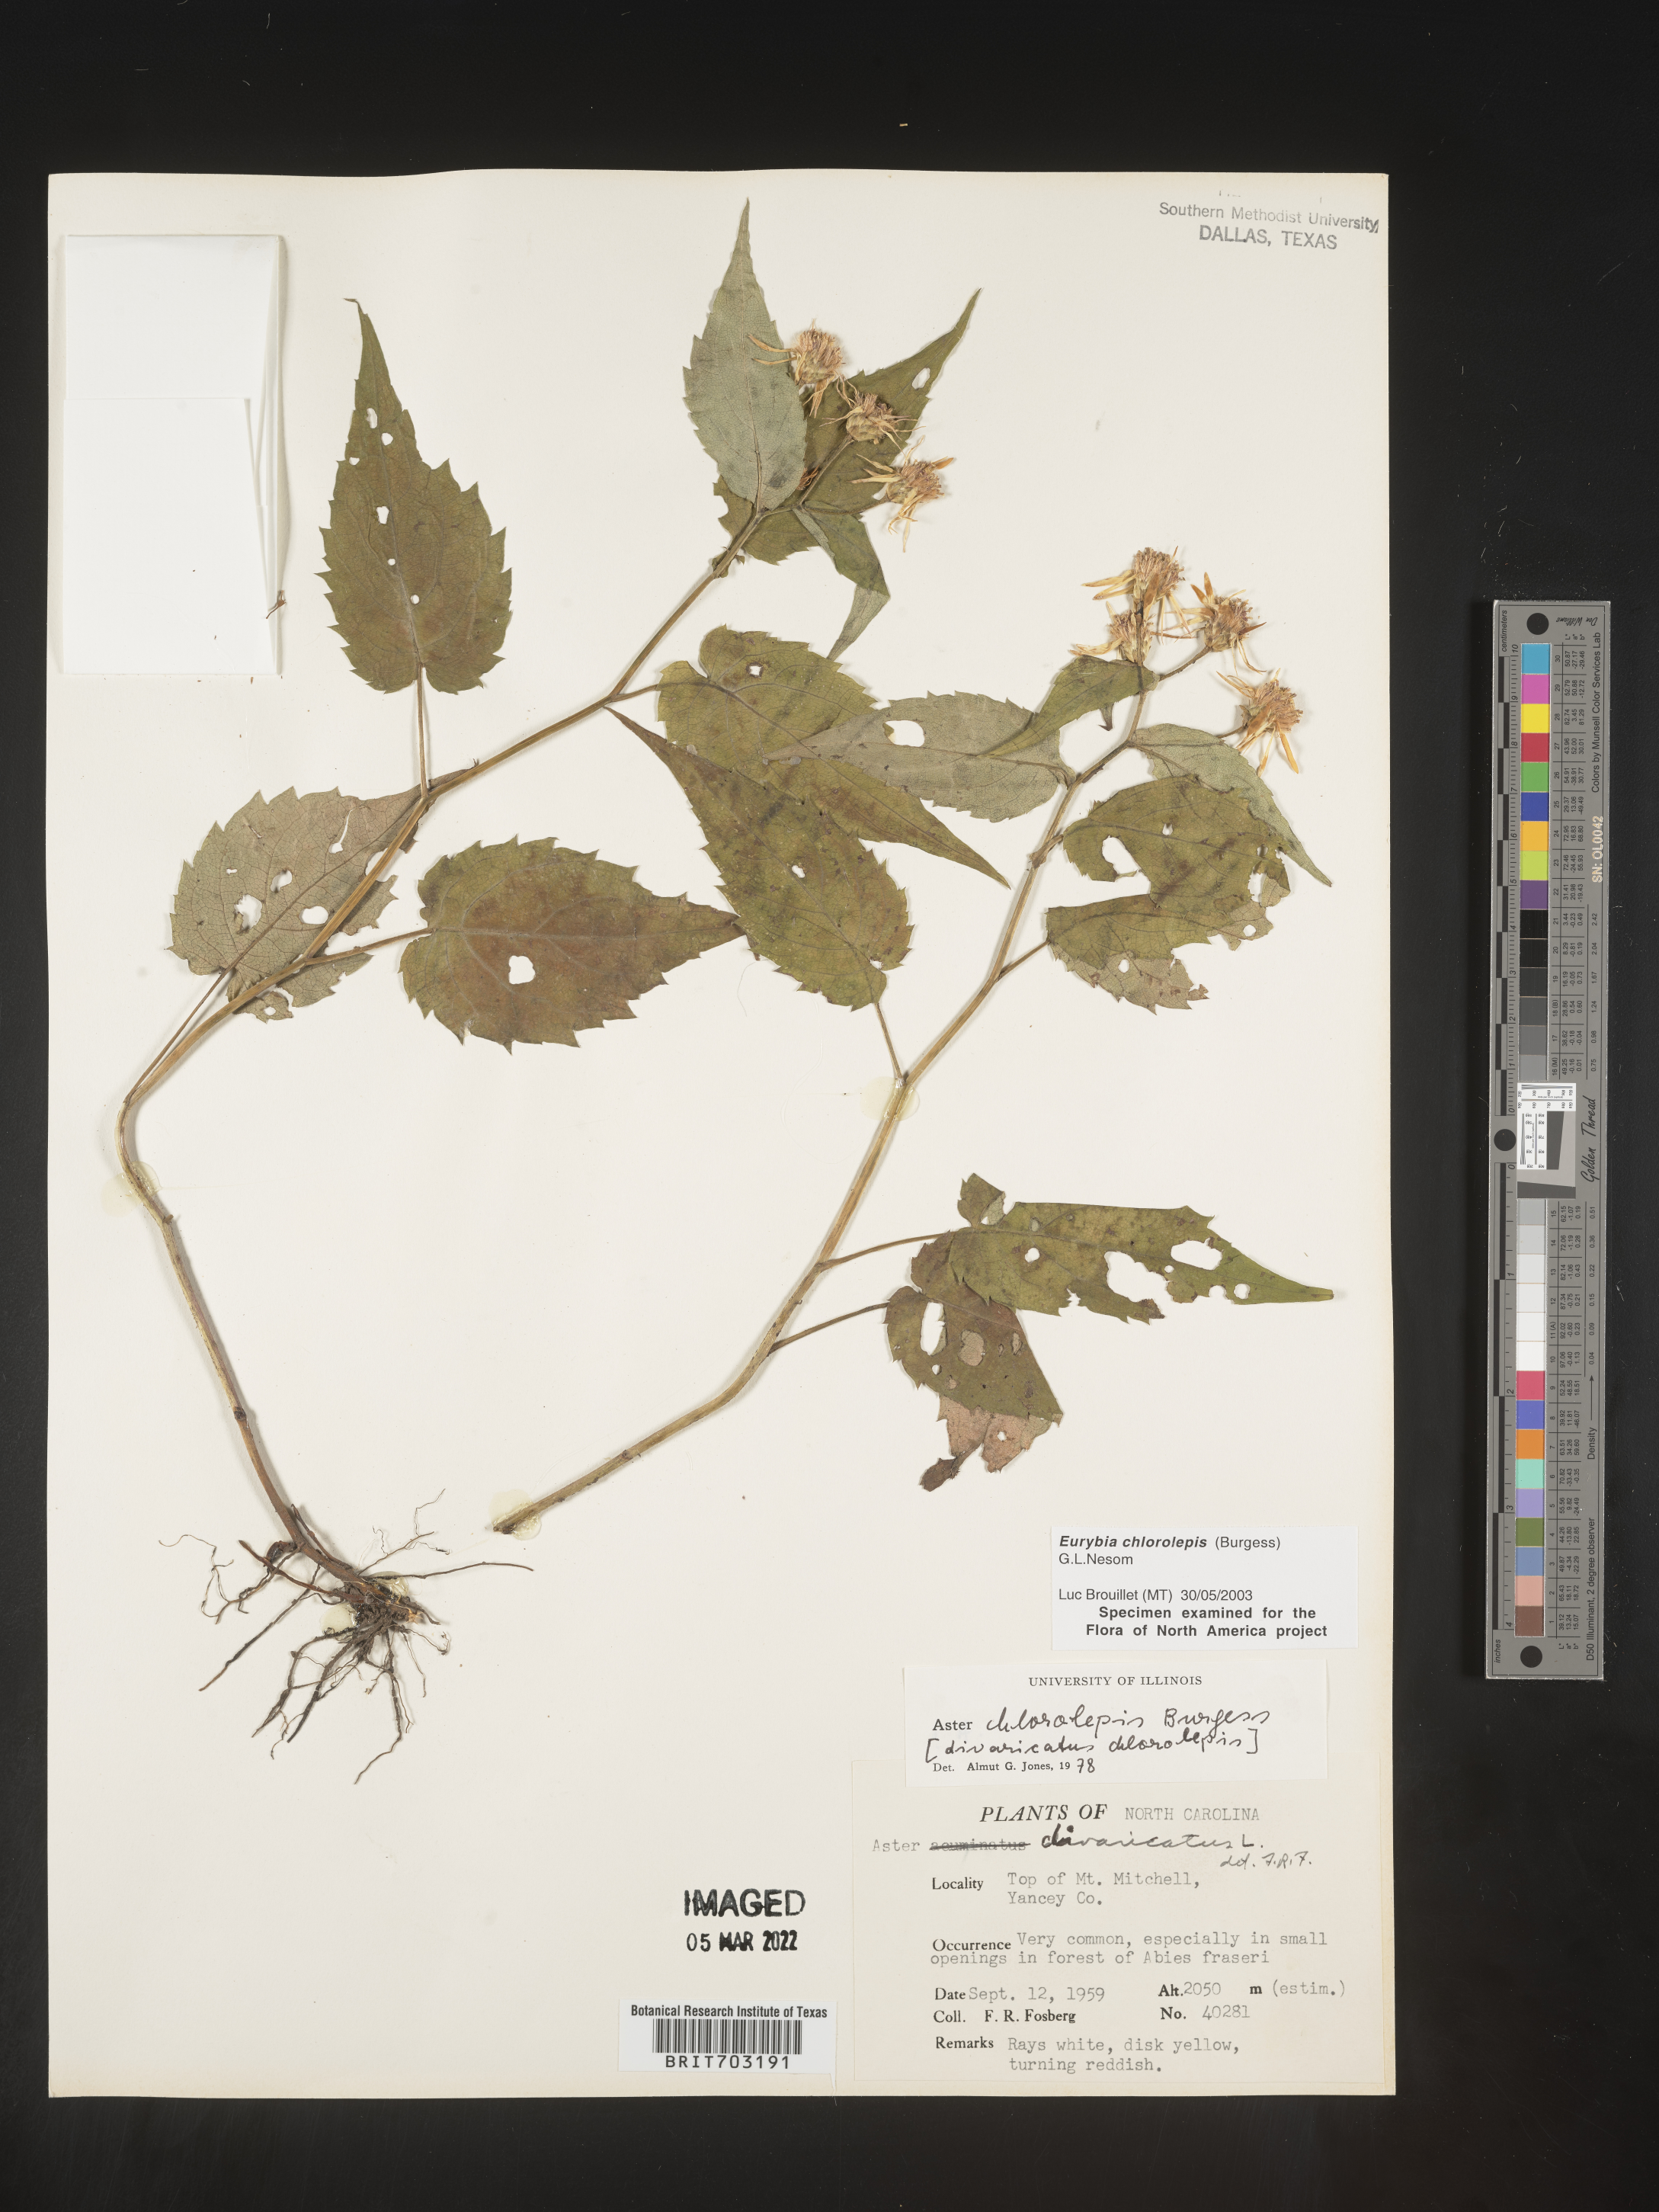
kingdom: Plantae
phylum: Tracheophyta
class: Magnoliopsida
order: Asterales
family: Asteraceae
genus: Eurybia
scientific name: Eurybia chlorolepis
